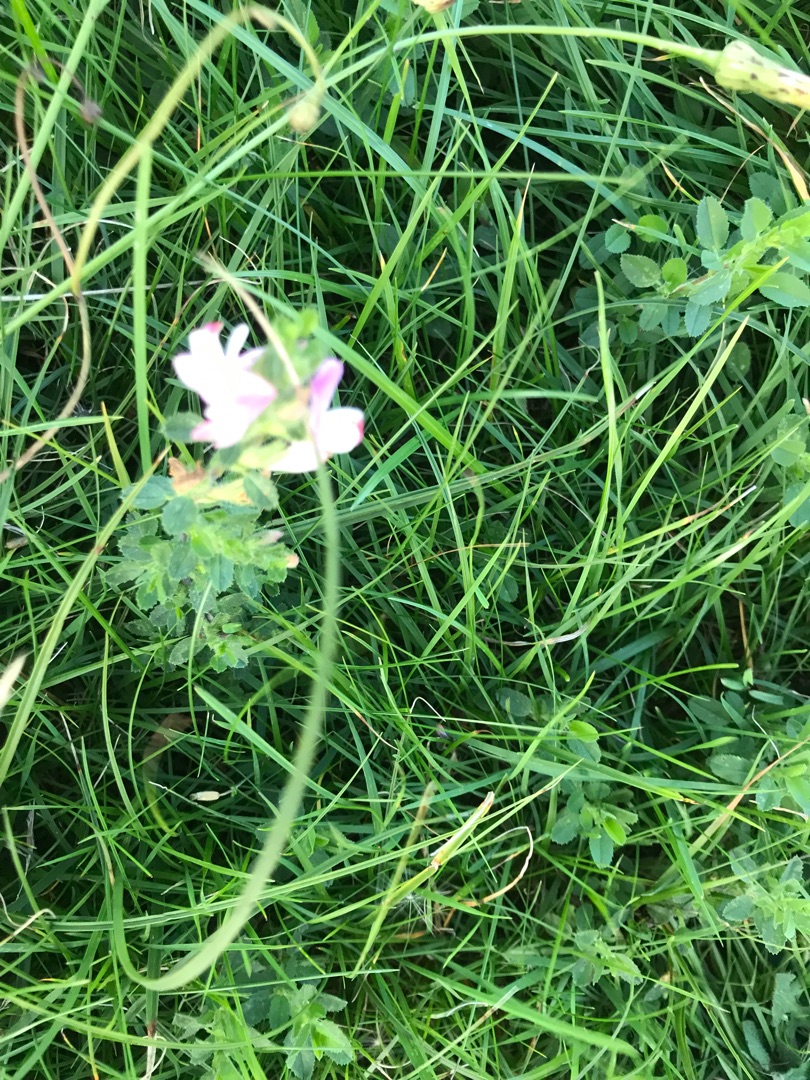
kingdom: Plantae
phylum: Tracheophyta
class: Magnoliopsida
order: Fabales
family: Fabaceae
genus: Ononis
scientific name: Ononis spinosa
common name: Krageklo
